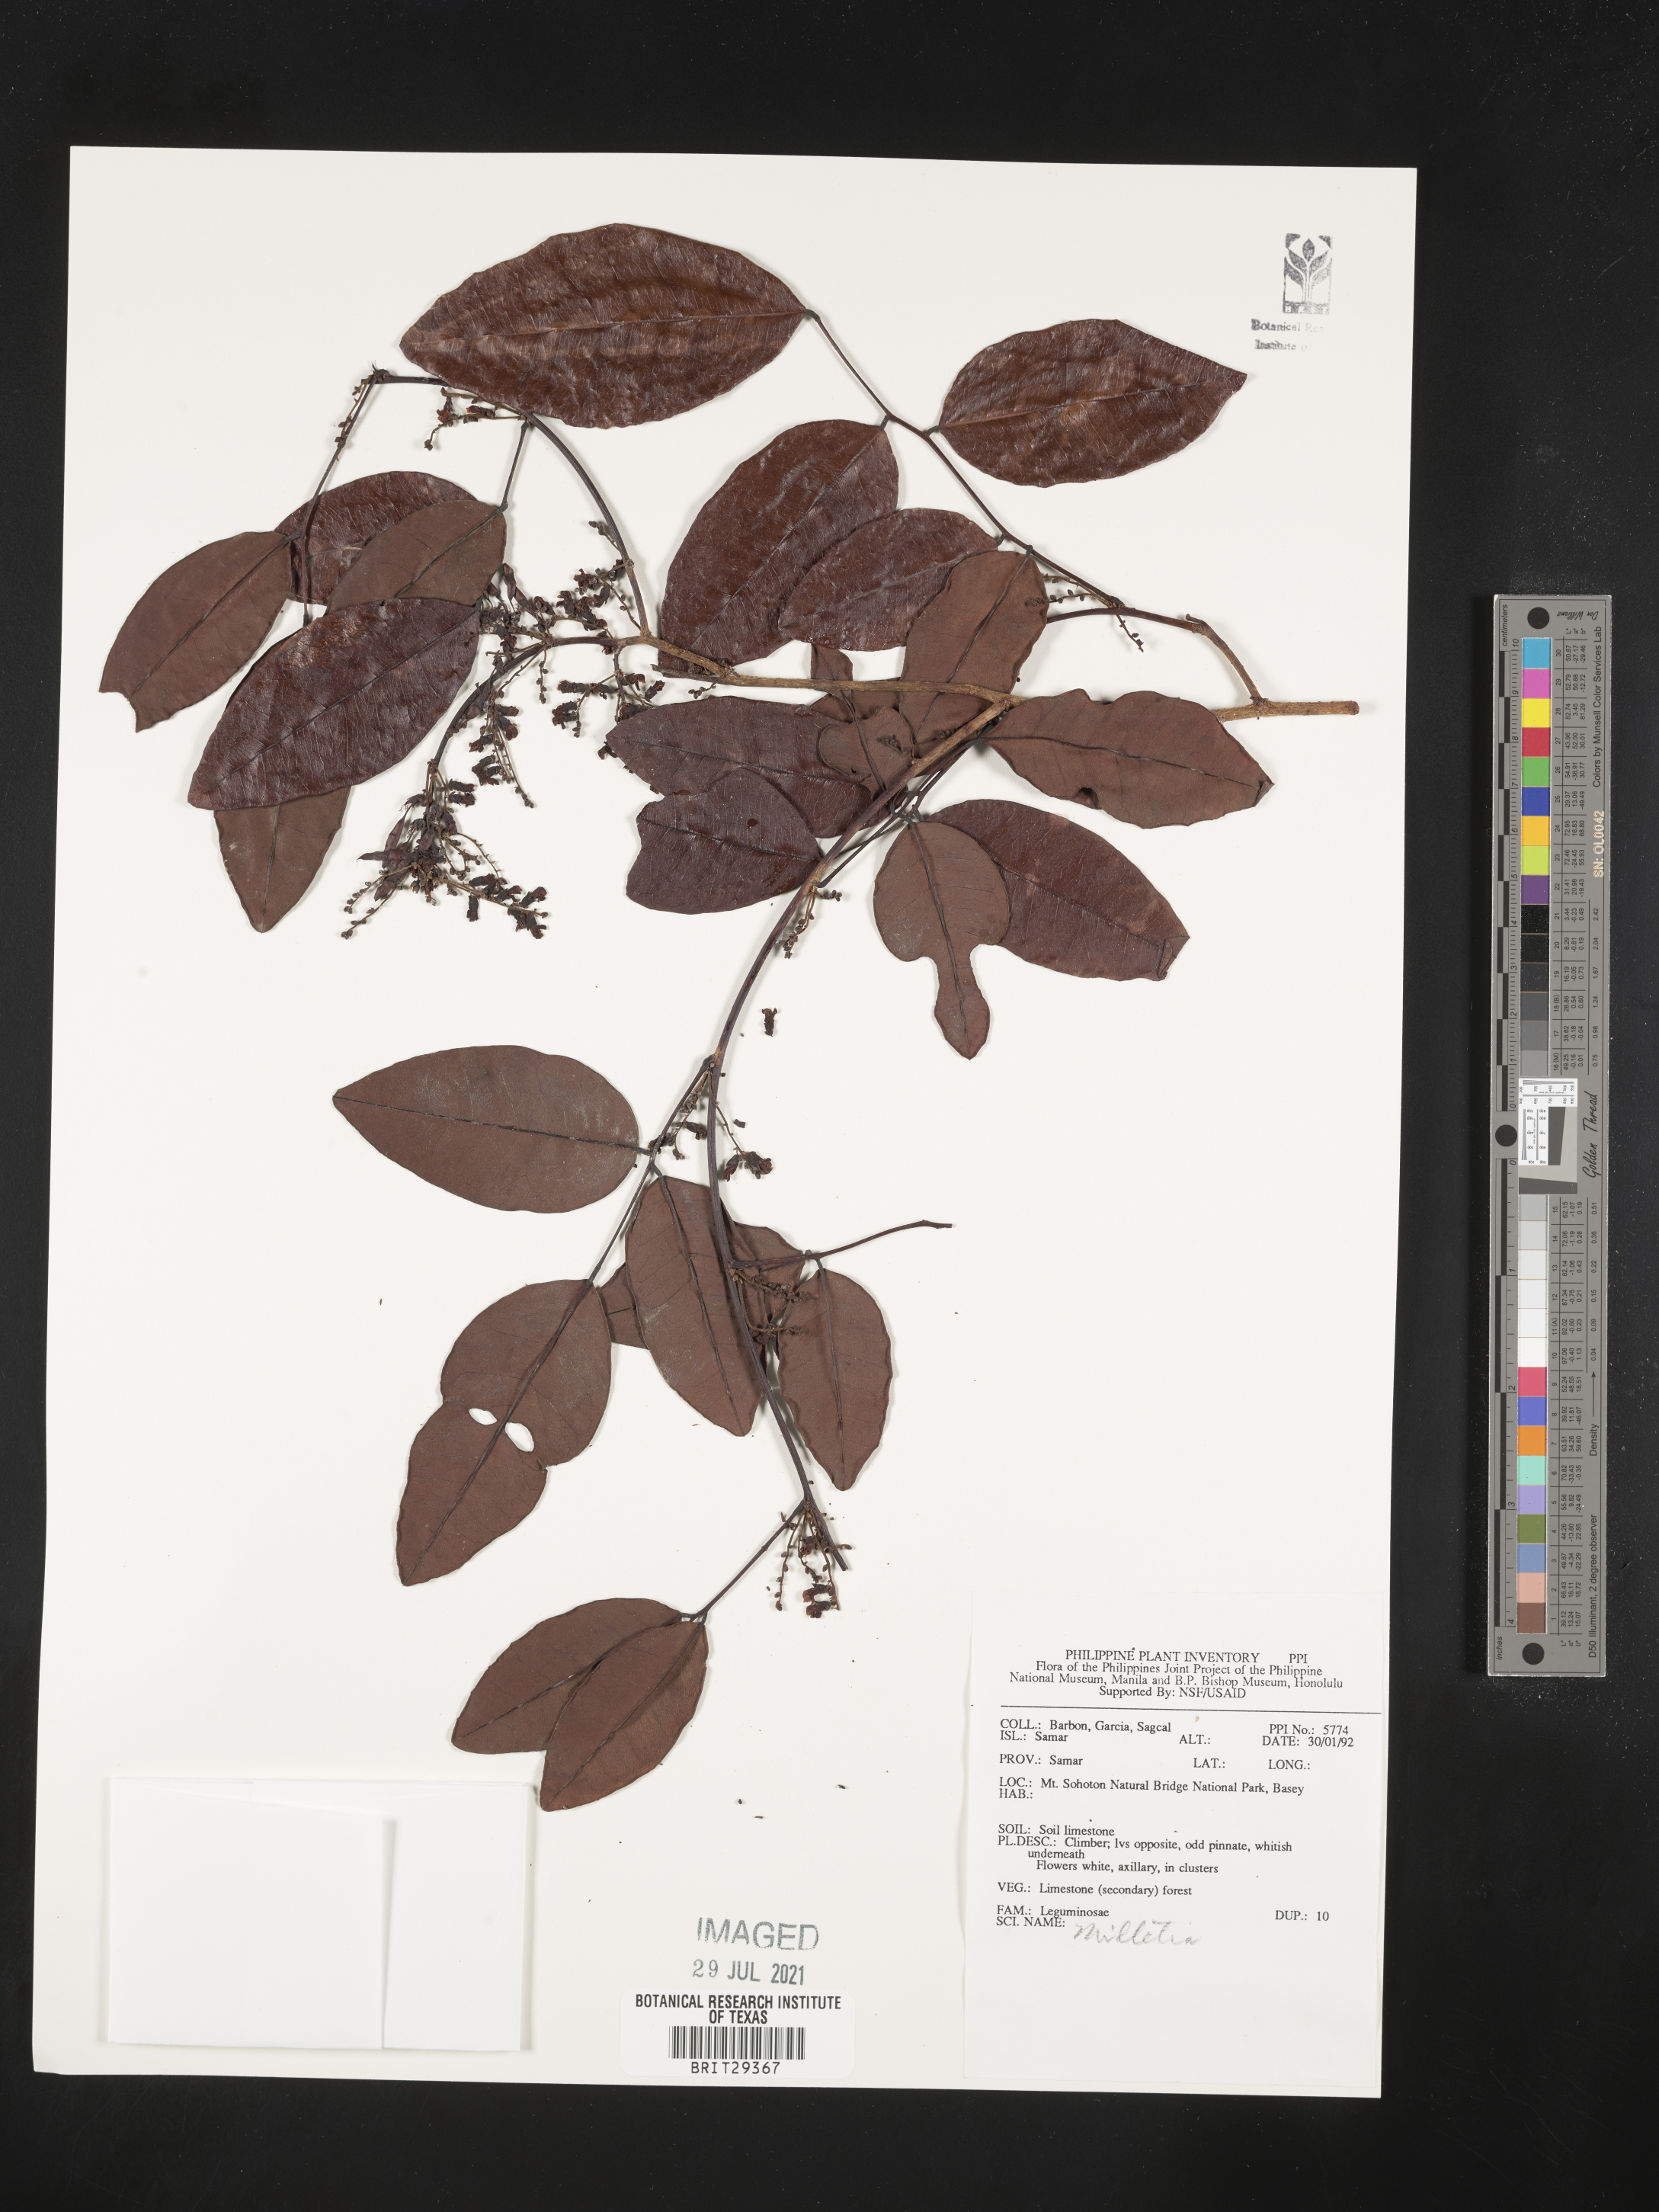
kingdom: Plantae
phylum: Tracheophyta
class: Magnoliopsida
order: Fabales
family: Fabaceae
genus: Millettia
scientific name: Millettia
